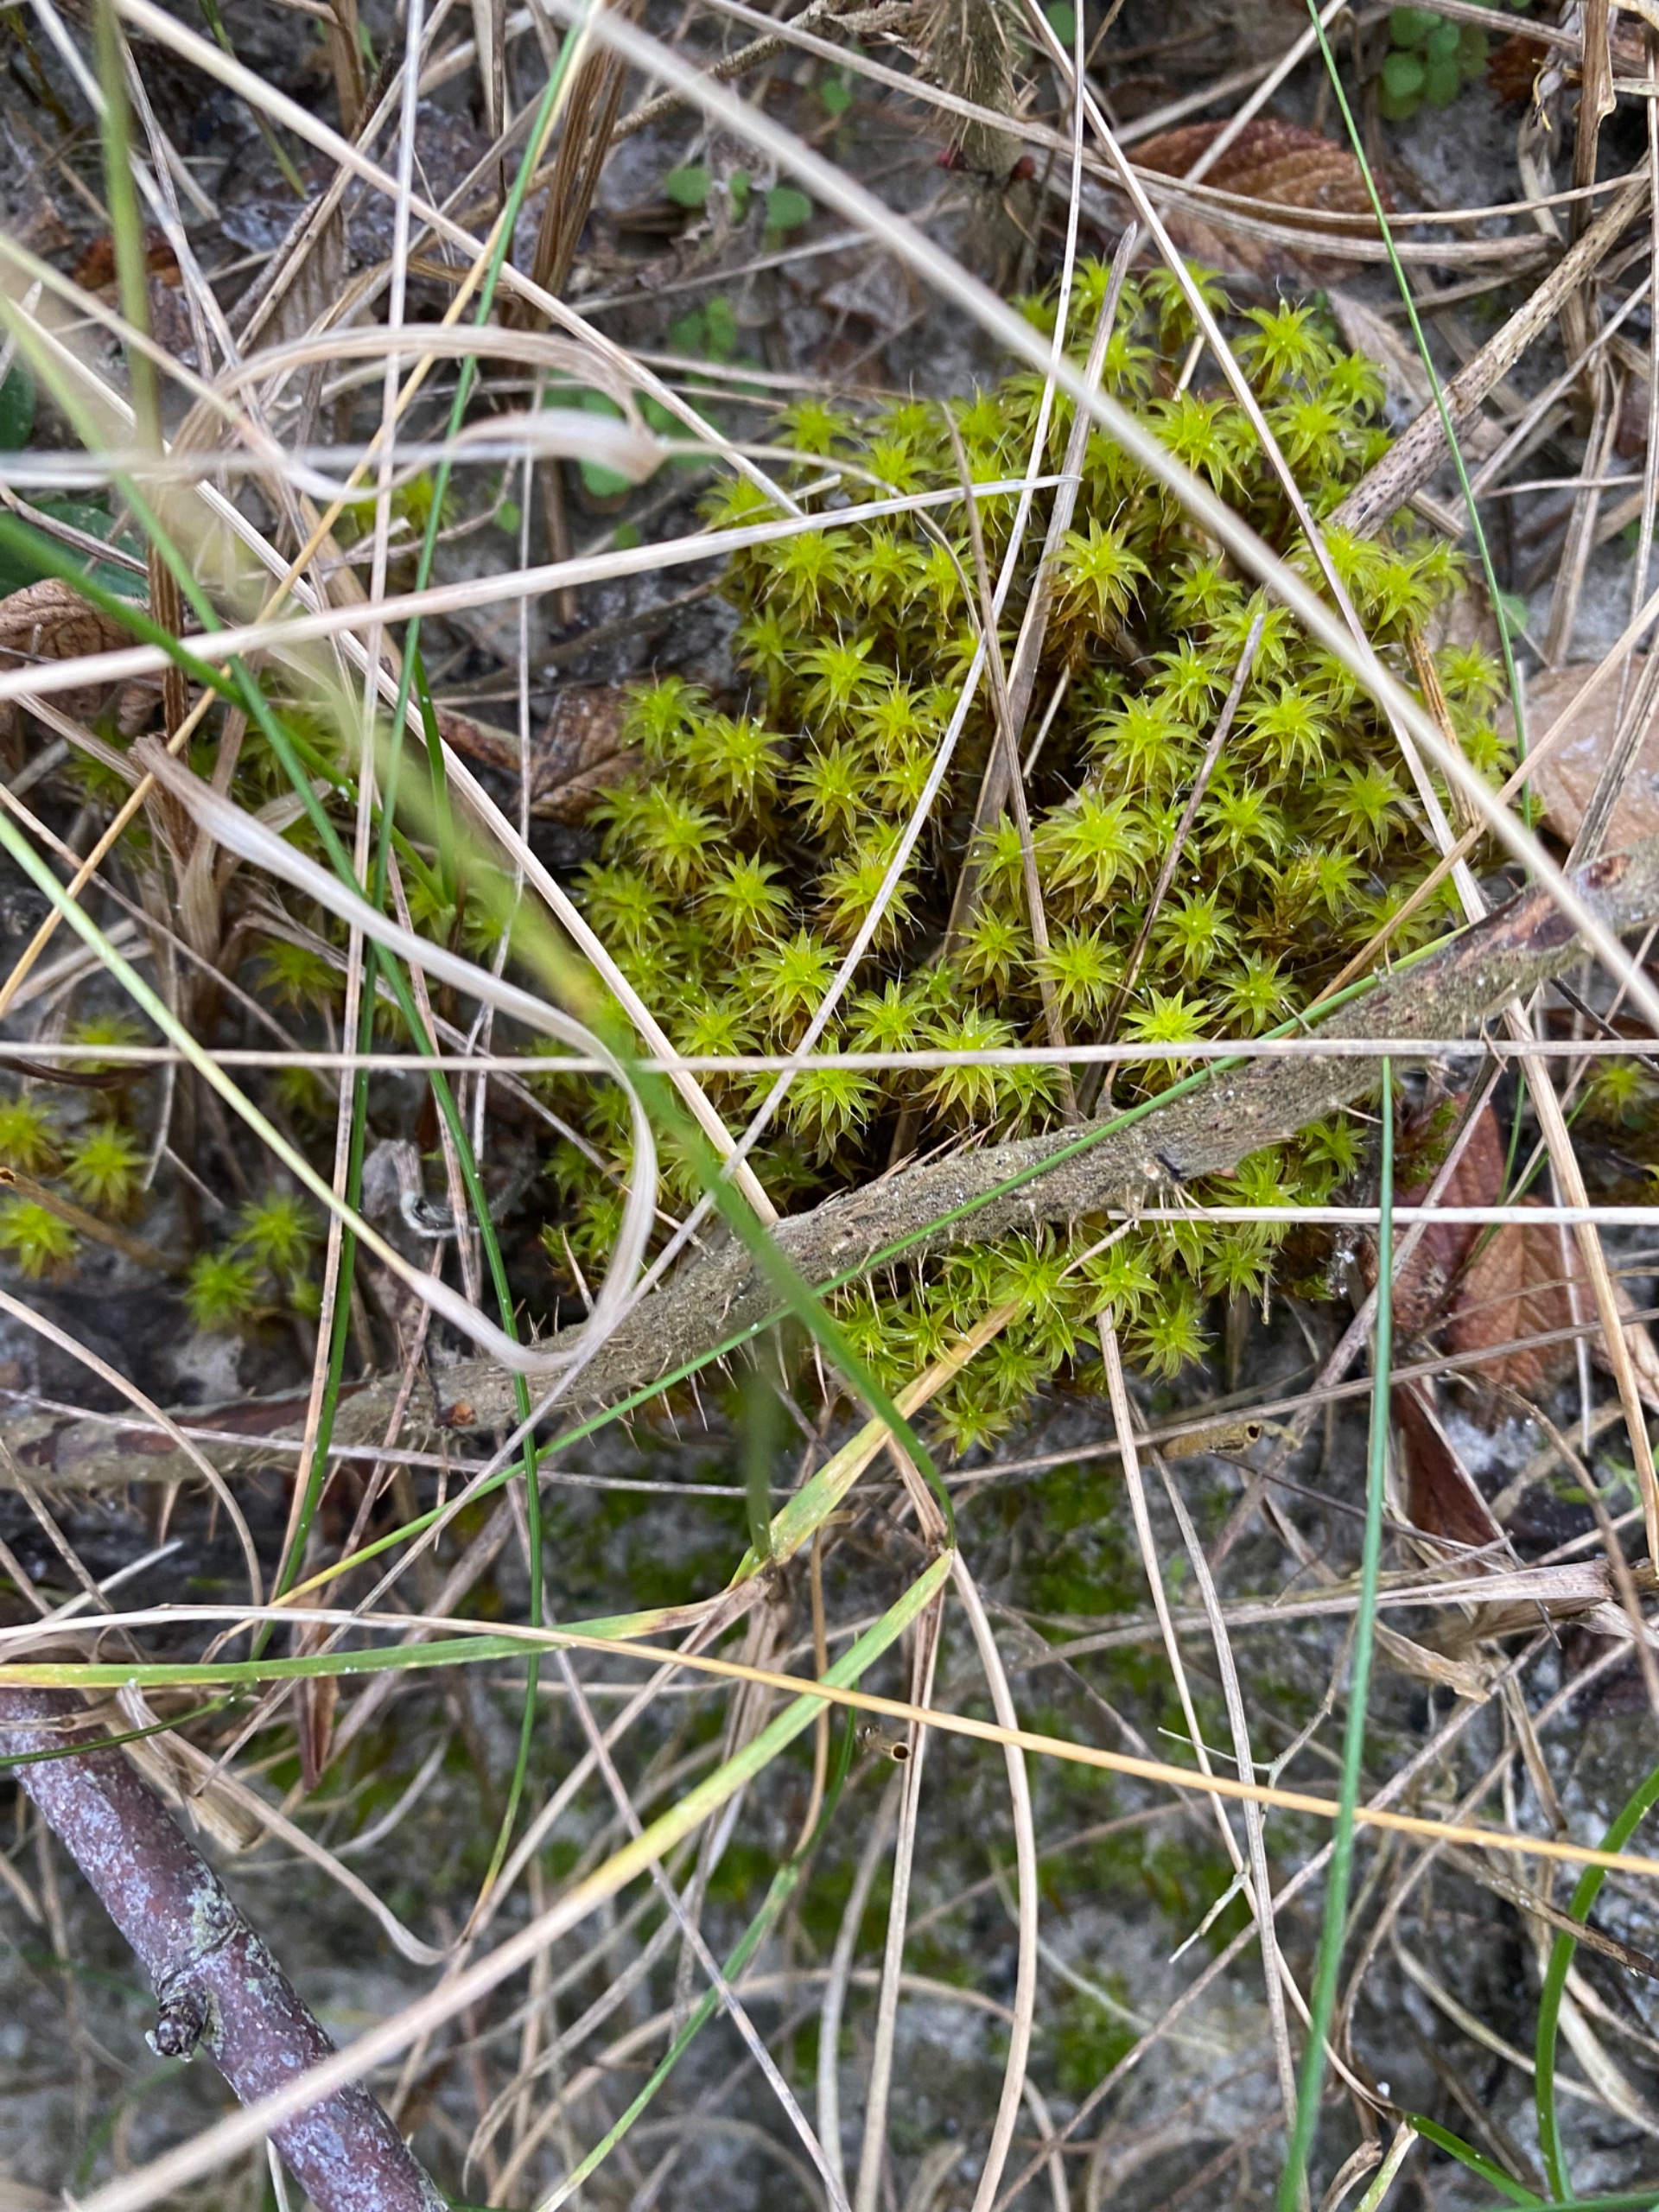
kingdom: Plantae
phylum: Bryophyta
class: Bryopsida
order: Pottiales
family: Pottiaceae
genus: Syntrichia
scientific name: Syntrichia ruralis
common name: Spidsbladet hårstjerne
